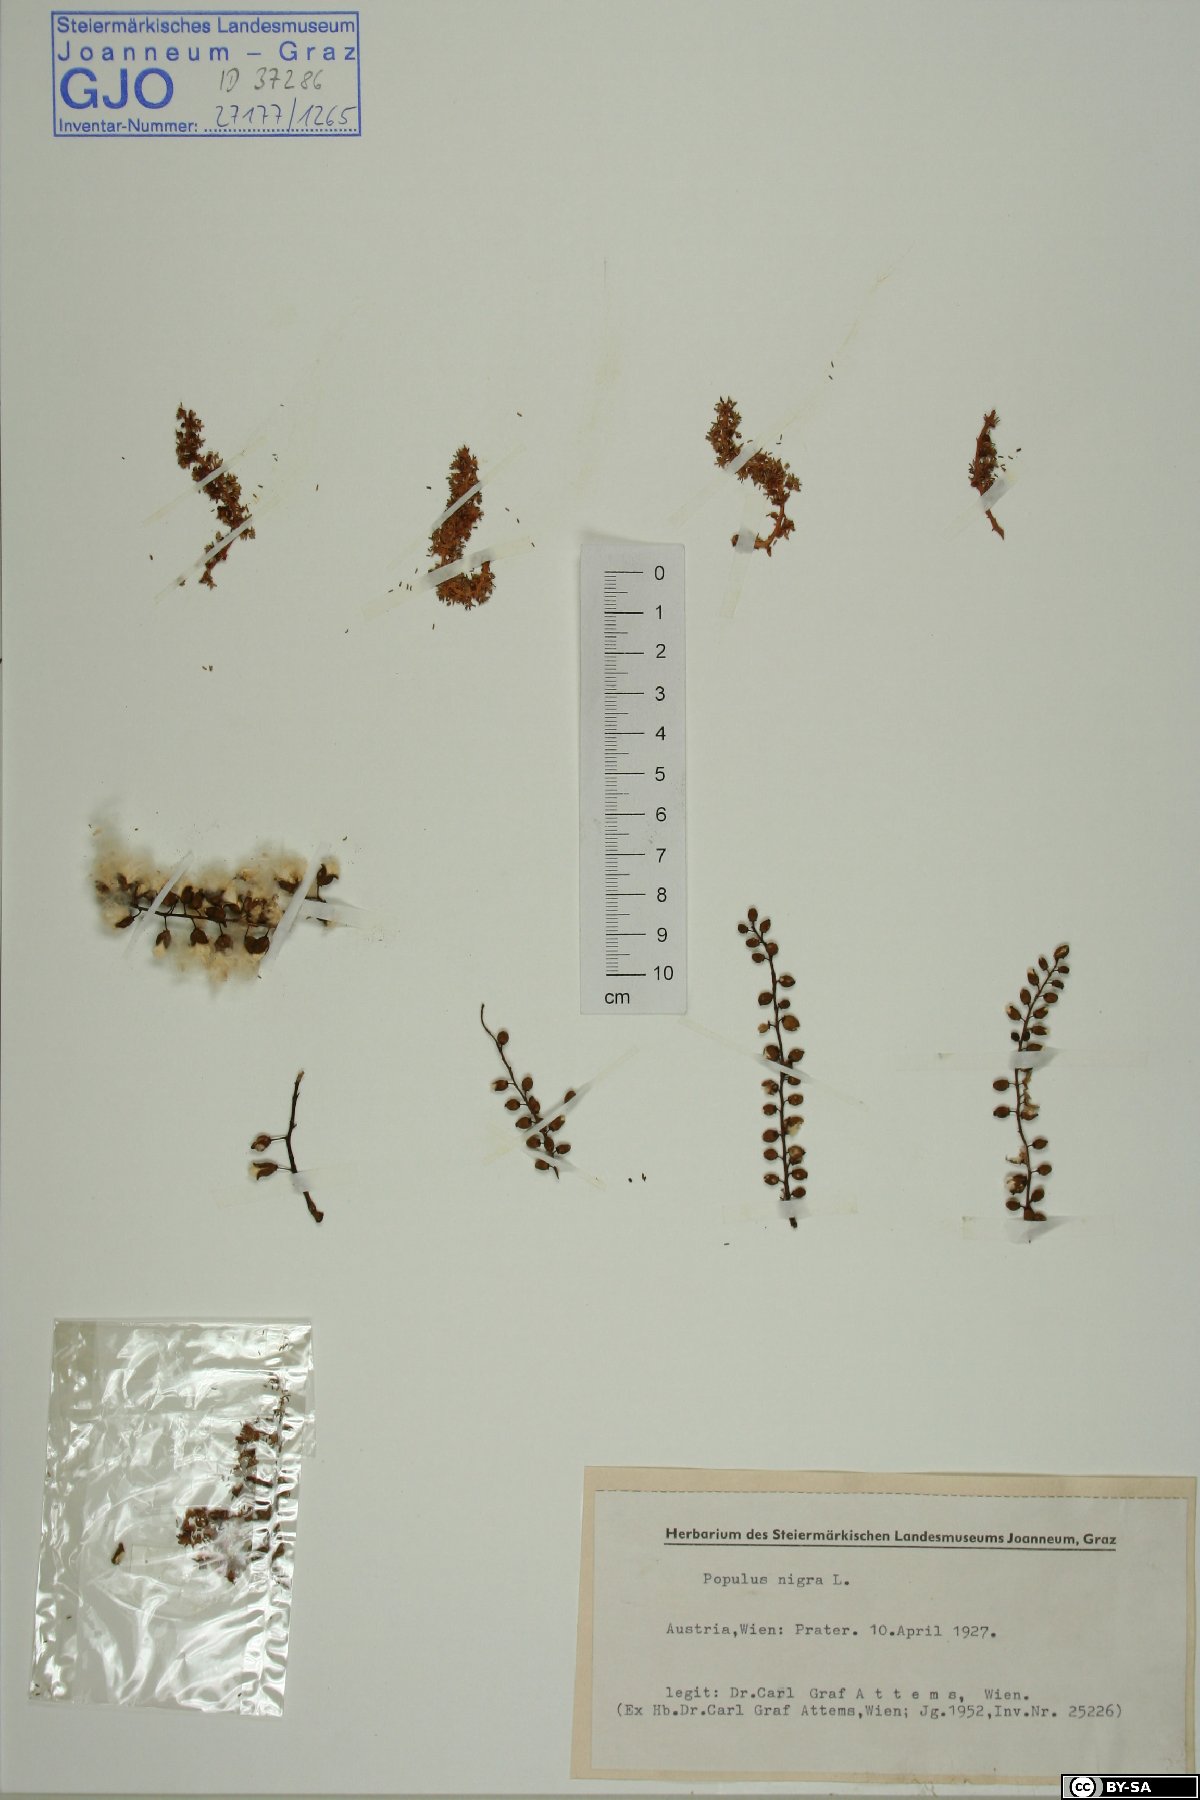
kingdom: Plantae
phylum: Tracheophyta
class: Magnoliopsida
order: Malpighiales
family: Salicaceae
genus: Populus
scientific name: Populus nigra
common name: Black poplar
